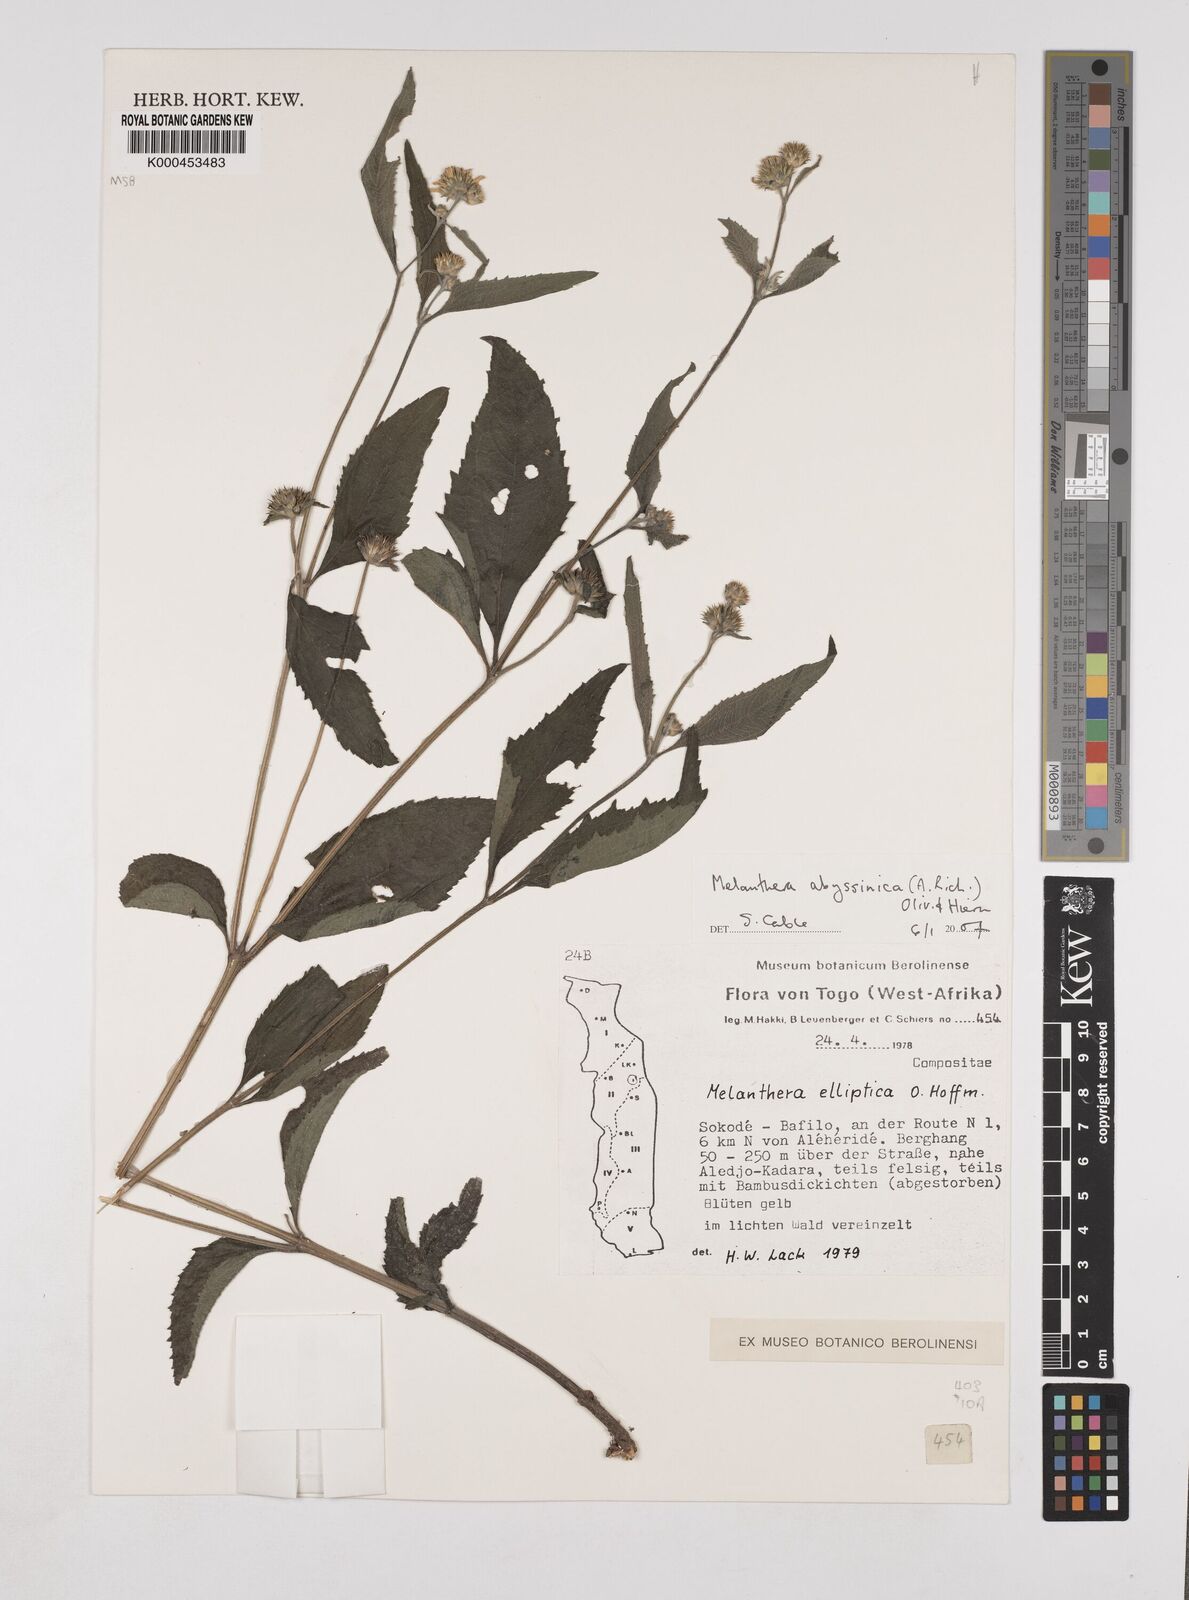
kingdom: Plantae
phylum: Tracheophyta
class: Magnoliopsida
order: Asterales
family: Asteraceae
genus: Lipotriche
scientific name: Lipotriche elliptica
